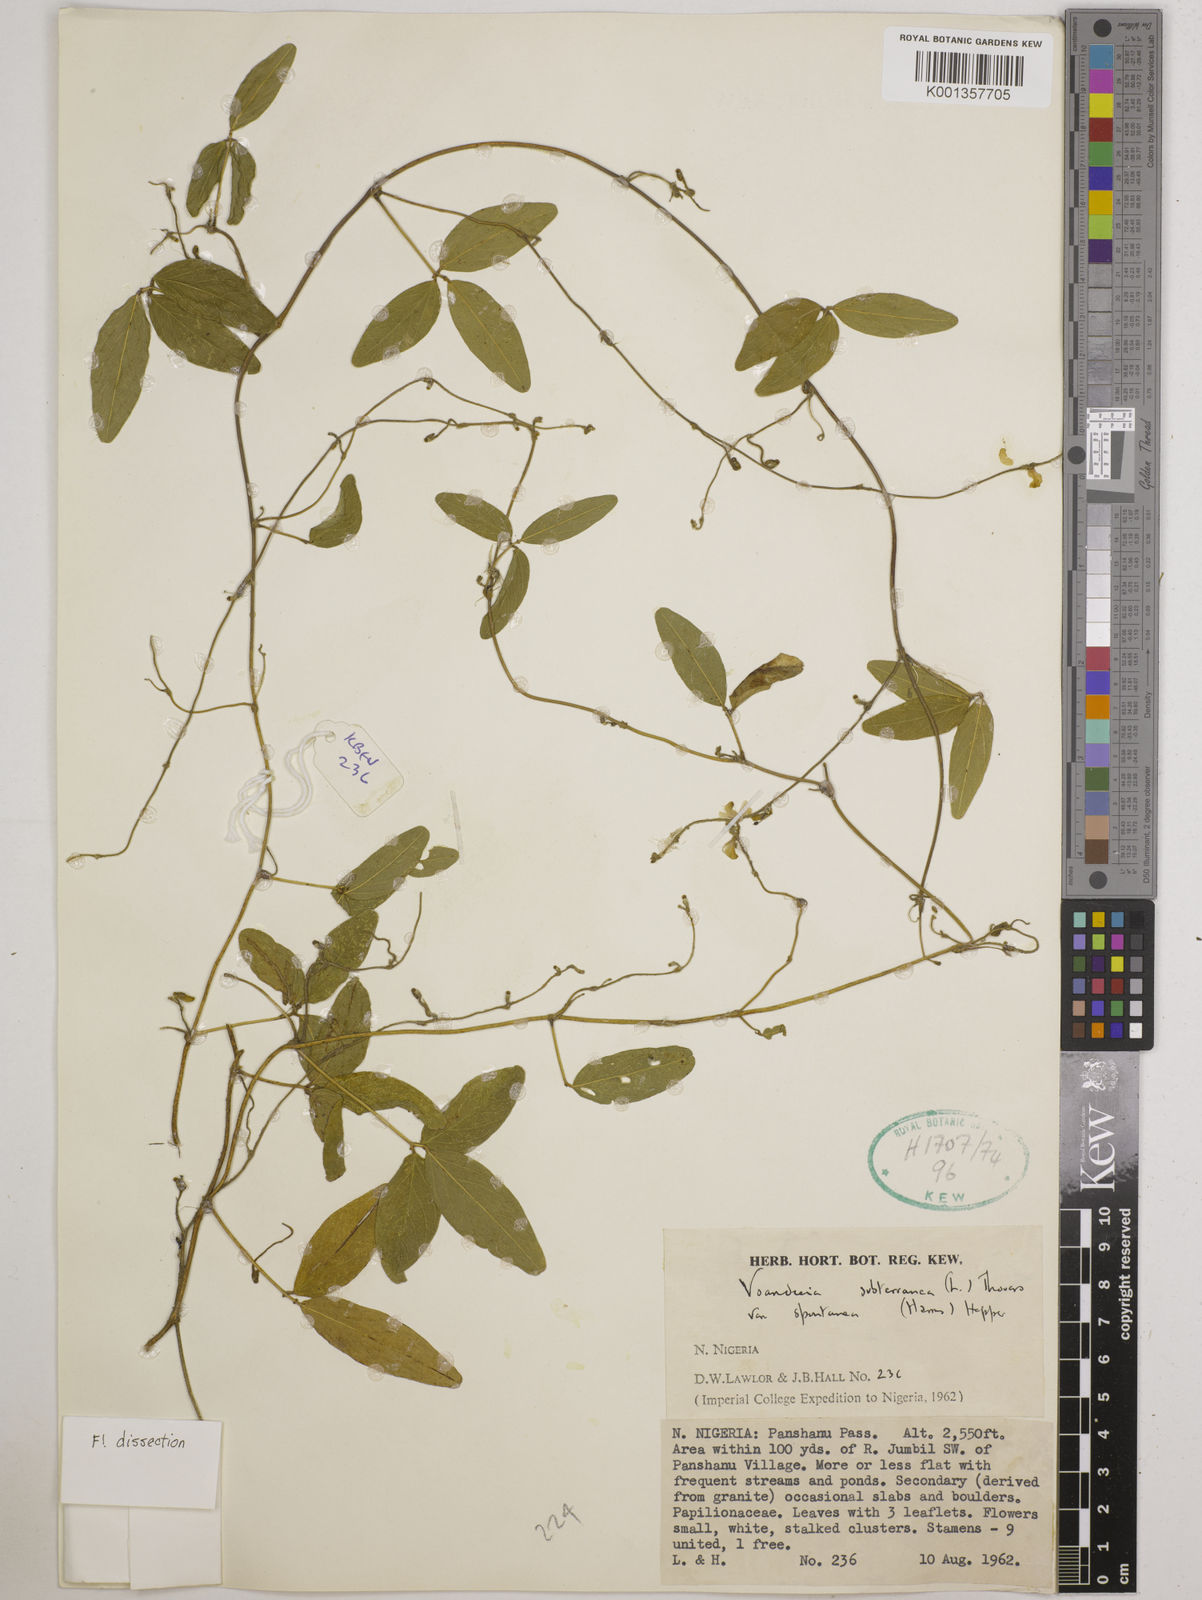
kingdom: Plantae
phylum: Tracheophyta
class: Magnoliopsida
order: Fabales
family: Fabaceae
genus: Vigna
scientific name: Vigna subterranea
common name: Bambara groundnut
